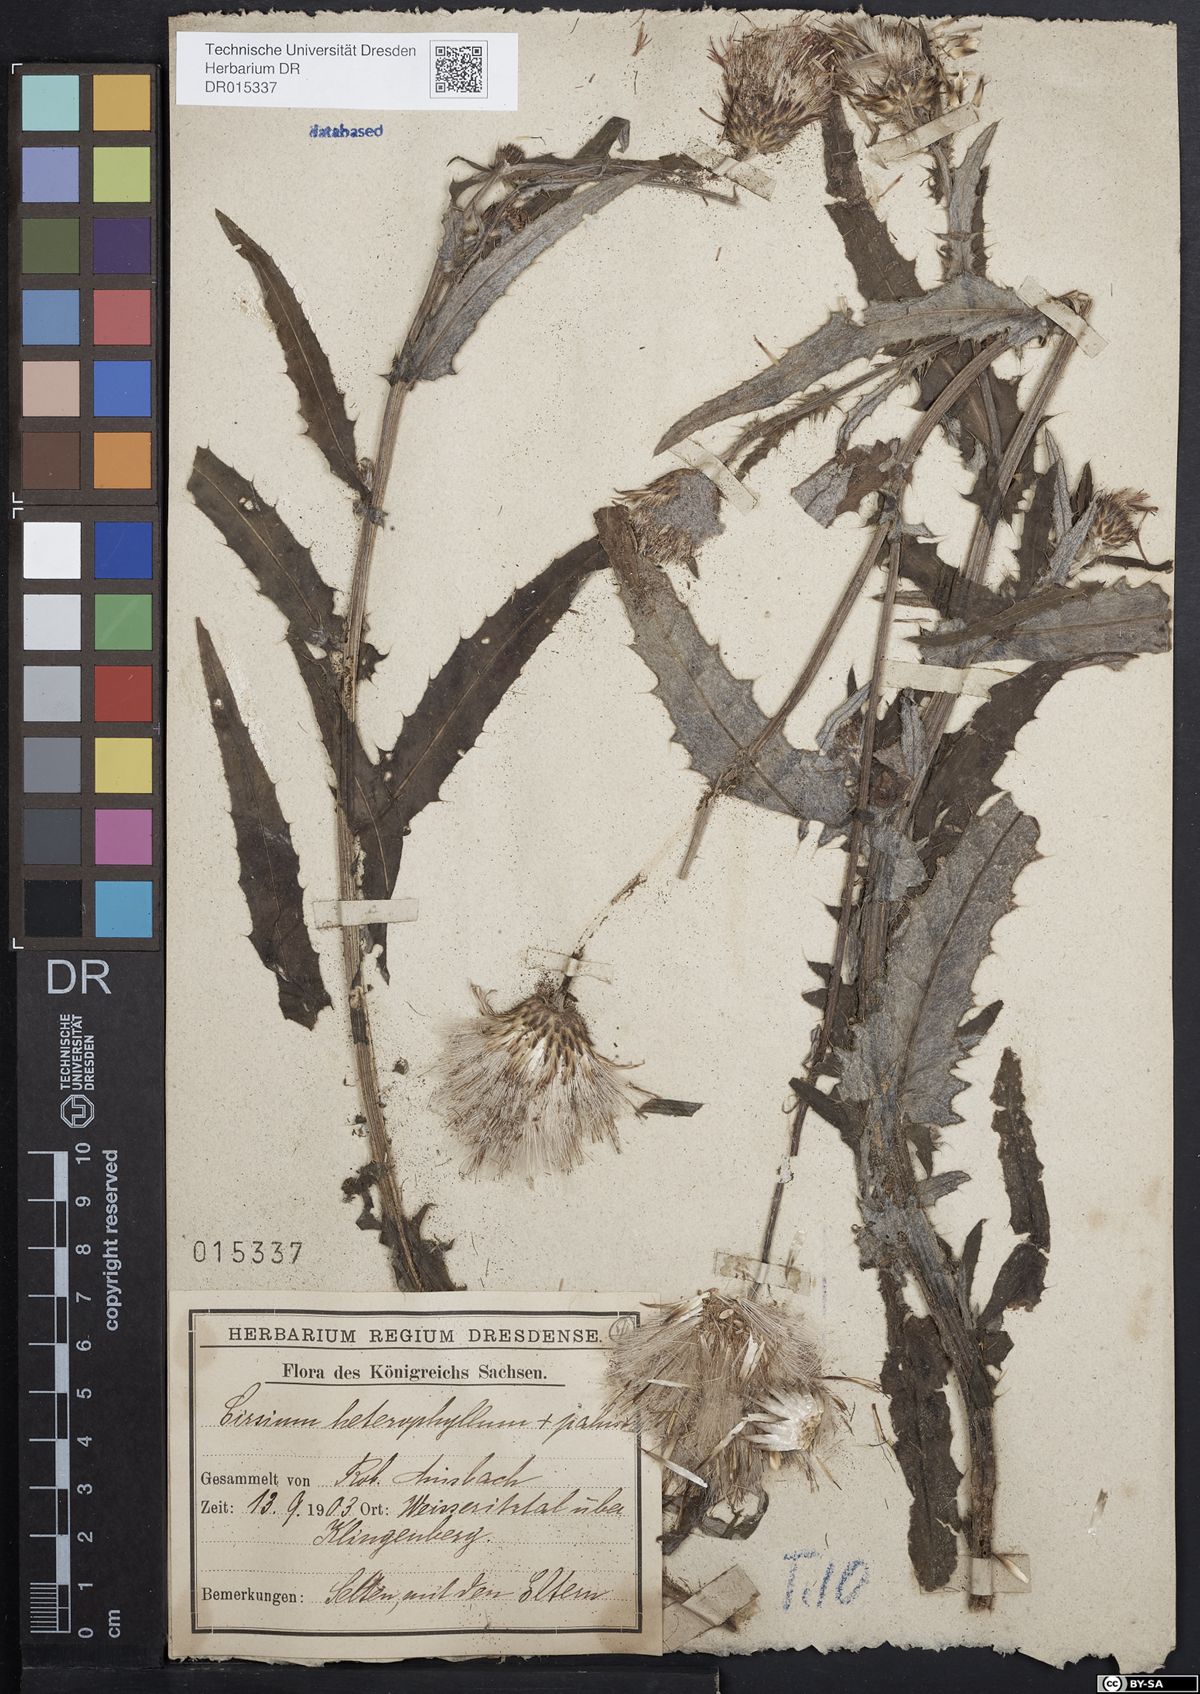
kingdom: Plantae
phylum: Tracheophyta
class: Magnoliopsida
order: Asterales
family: Asteraceae
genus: Cirsium
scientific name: Cirsium wankelii
